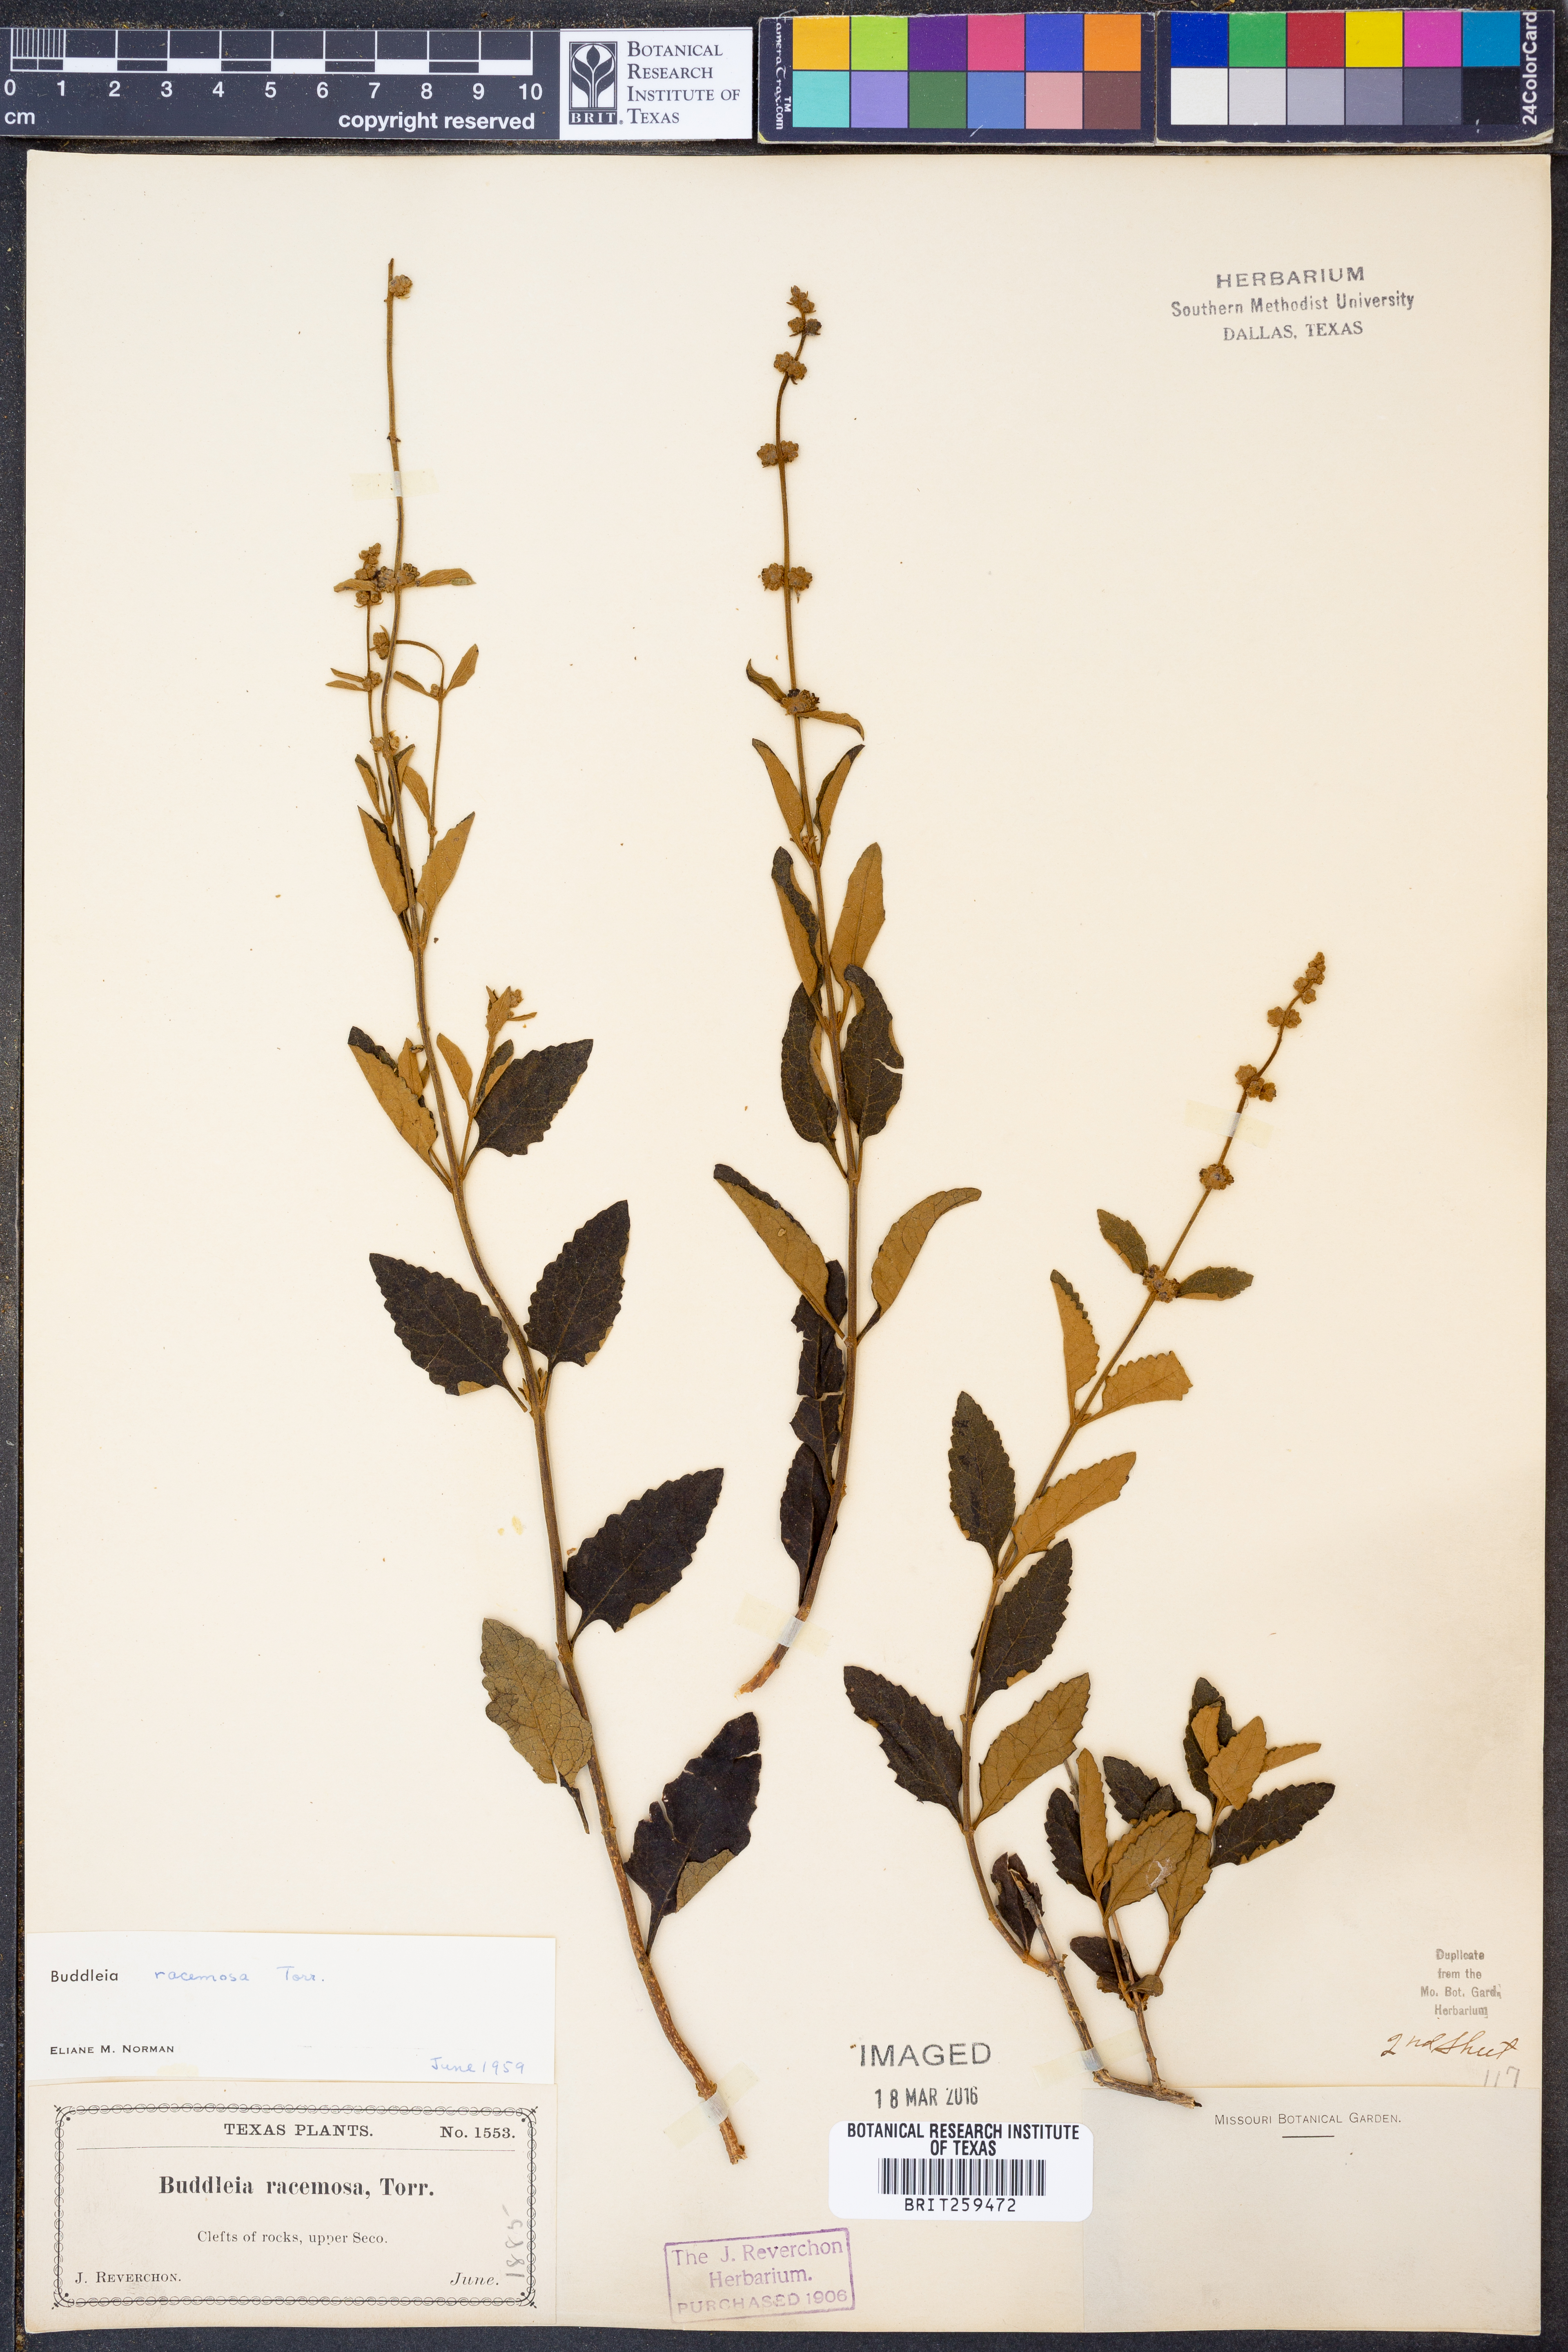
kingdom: Plantae
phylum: Tracheophyta
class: Magnoliopsida
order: Lamiales
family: Scrophulariaceae
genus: Buddleja
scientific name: Buddleja racemosa
